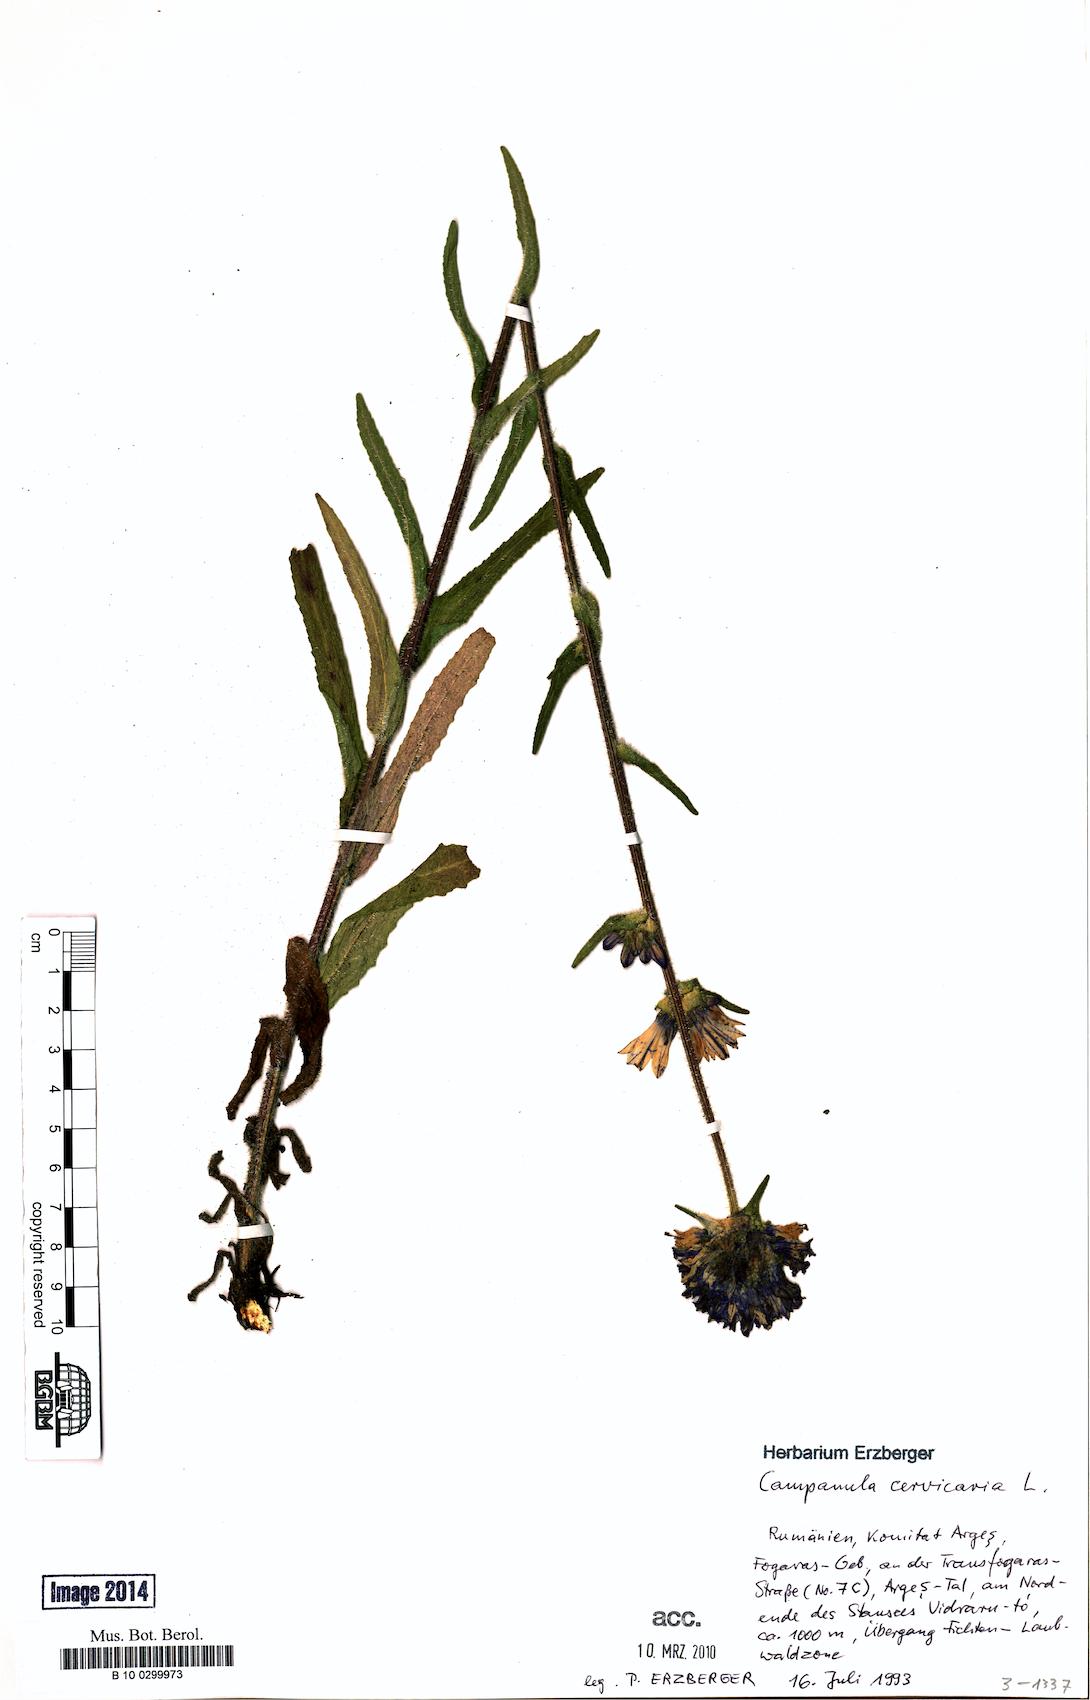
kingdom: Plantae
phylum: Tracheophyta
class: Magnoliopsida
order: Asterales
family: Campanulaceae
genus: Campanula
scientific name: Campanula cervicaria
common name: Bristly bellflower
